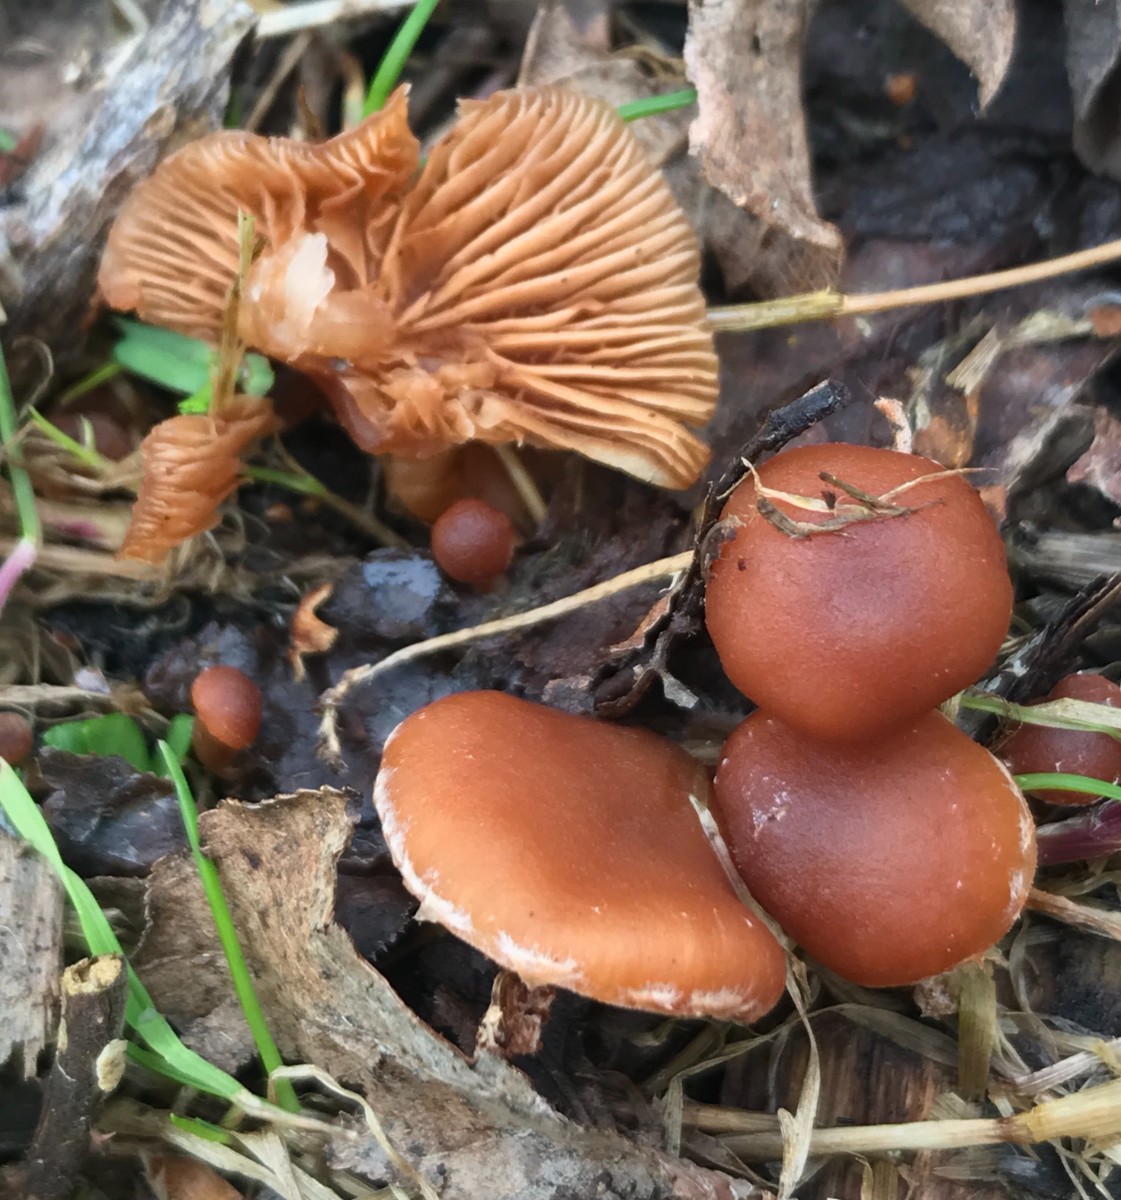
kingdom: Fungi
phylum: Basidiomycota
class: Agaricomycetes
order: Agaricales
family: Tubariaceae
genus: Tubaria
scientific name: Tubaria furfuracea
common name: kliddet fnughat
